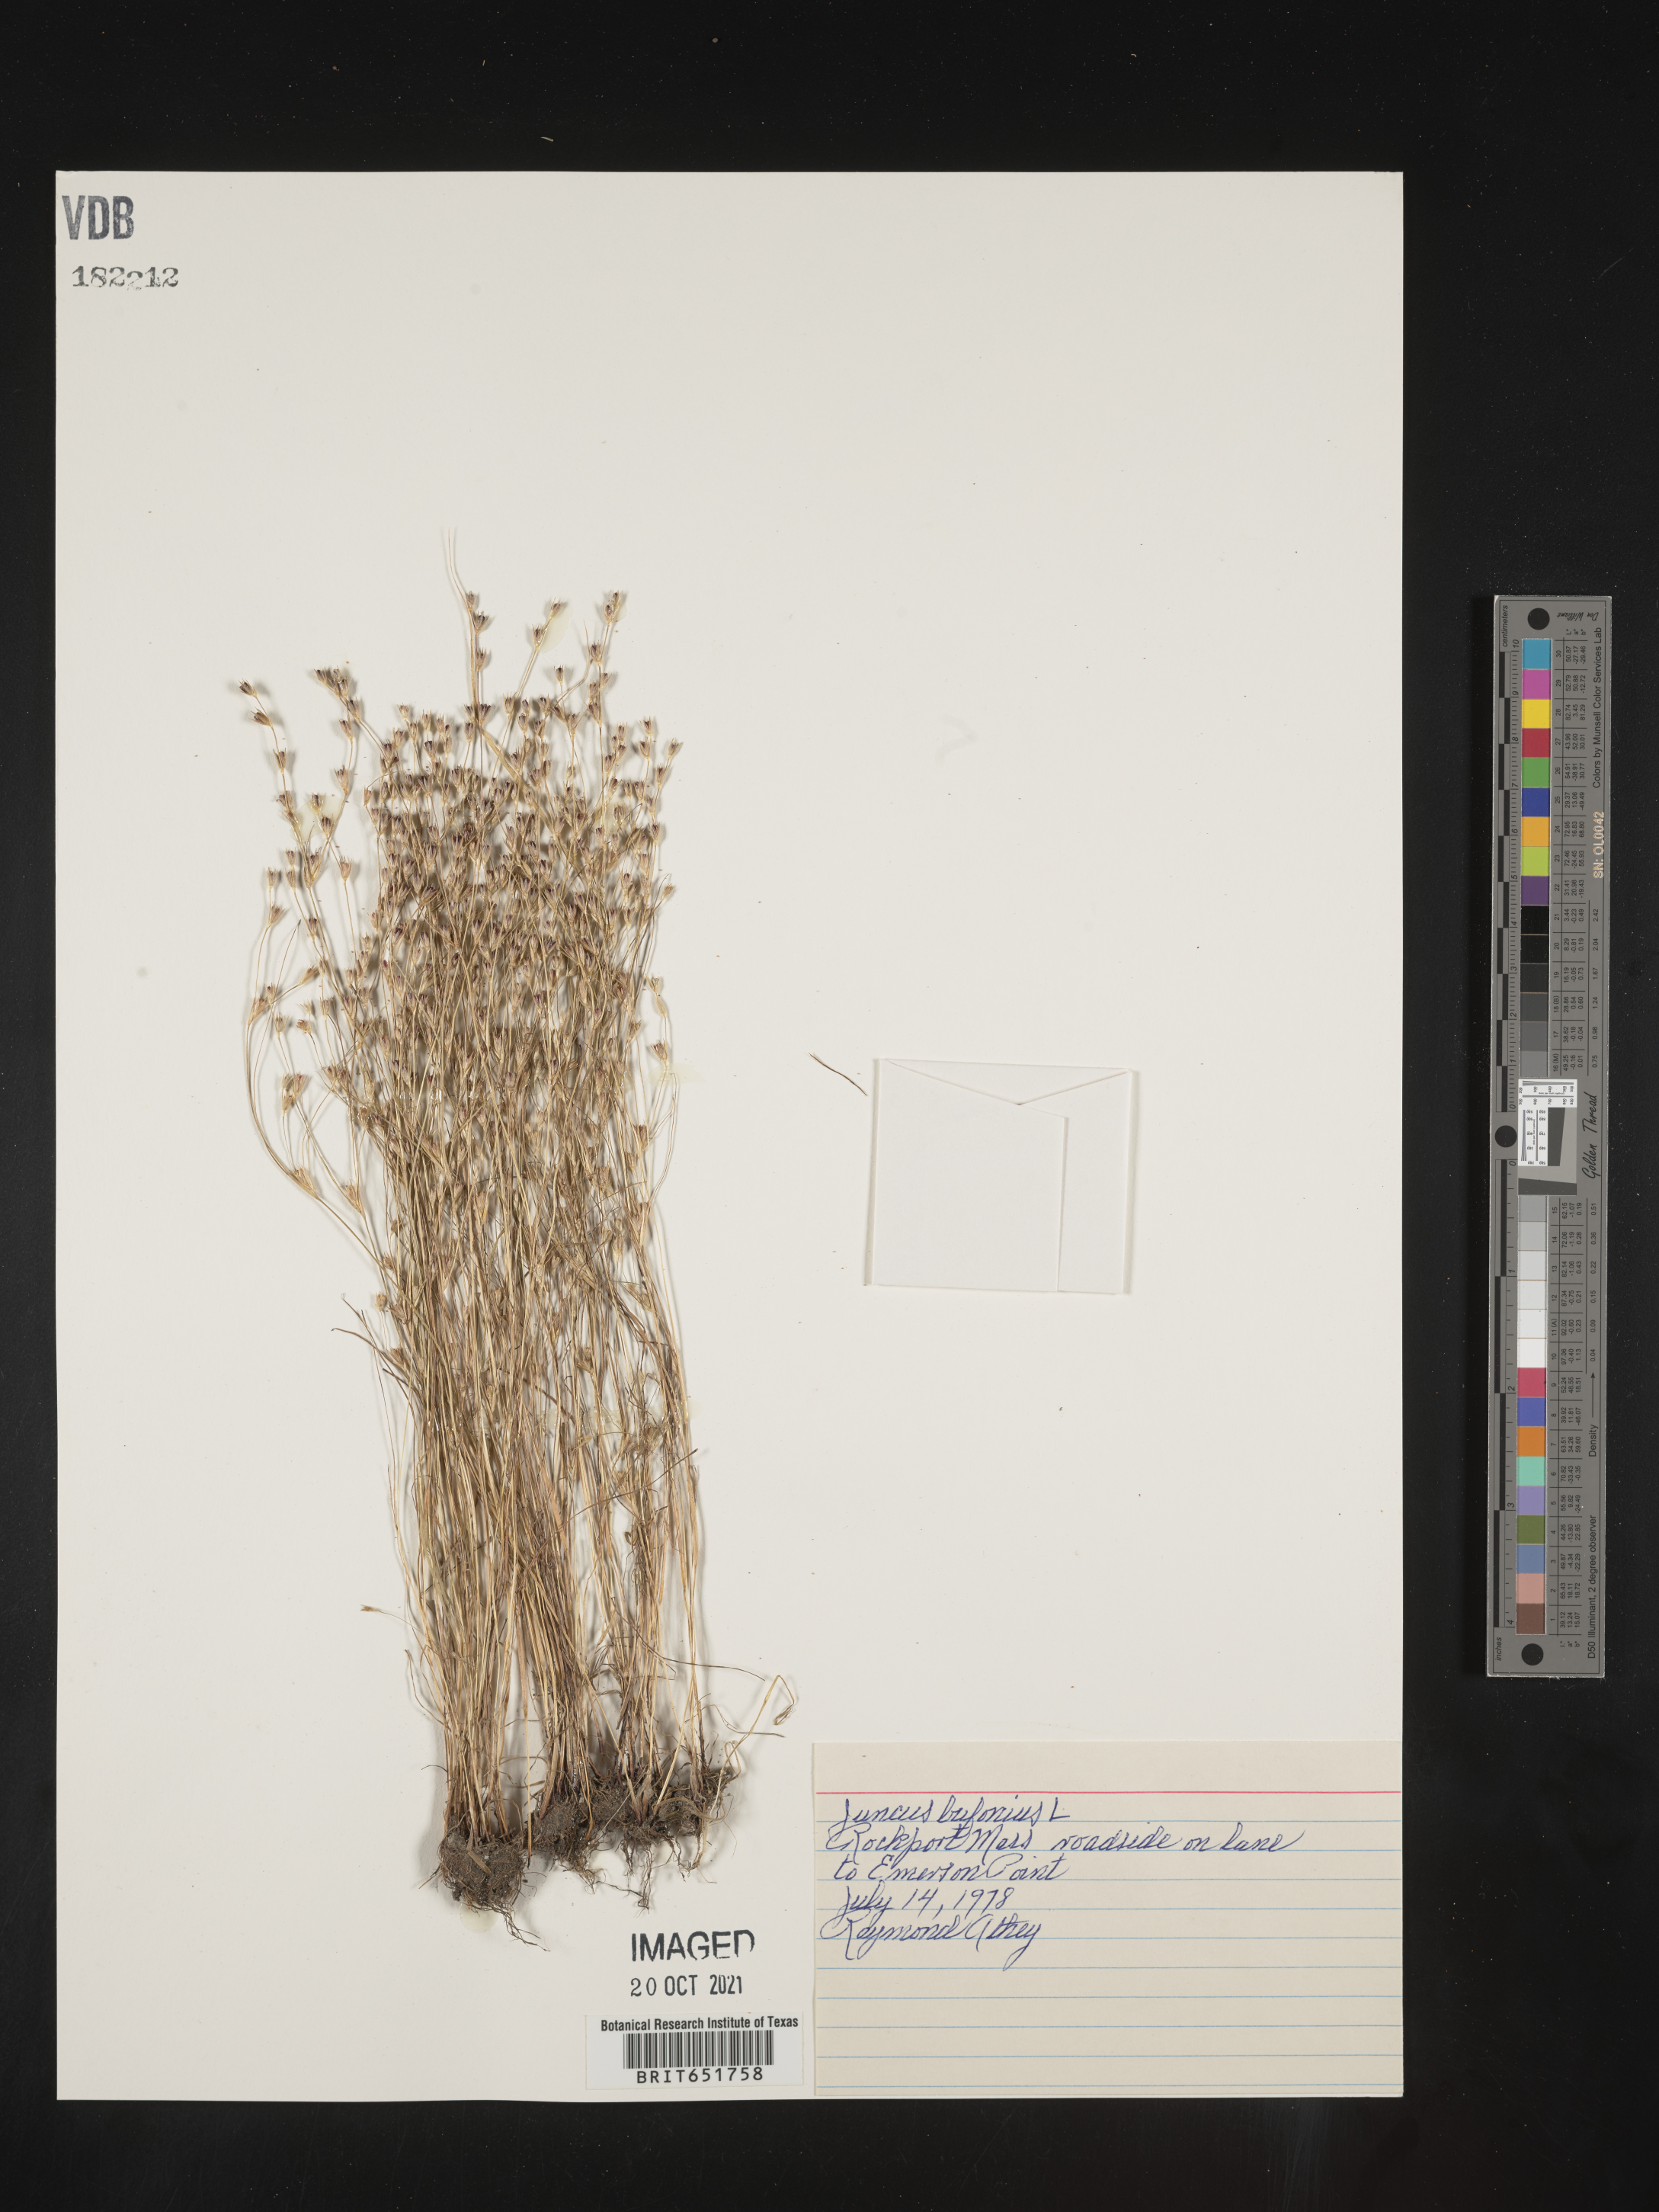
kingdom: Plantae
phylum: Tracheophyta
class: Liliopsida
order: Poales
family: Juncaceae
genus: Juncus
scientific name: Juncus bufonius
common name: Toad rush
